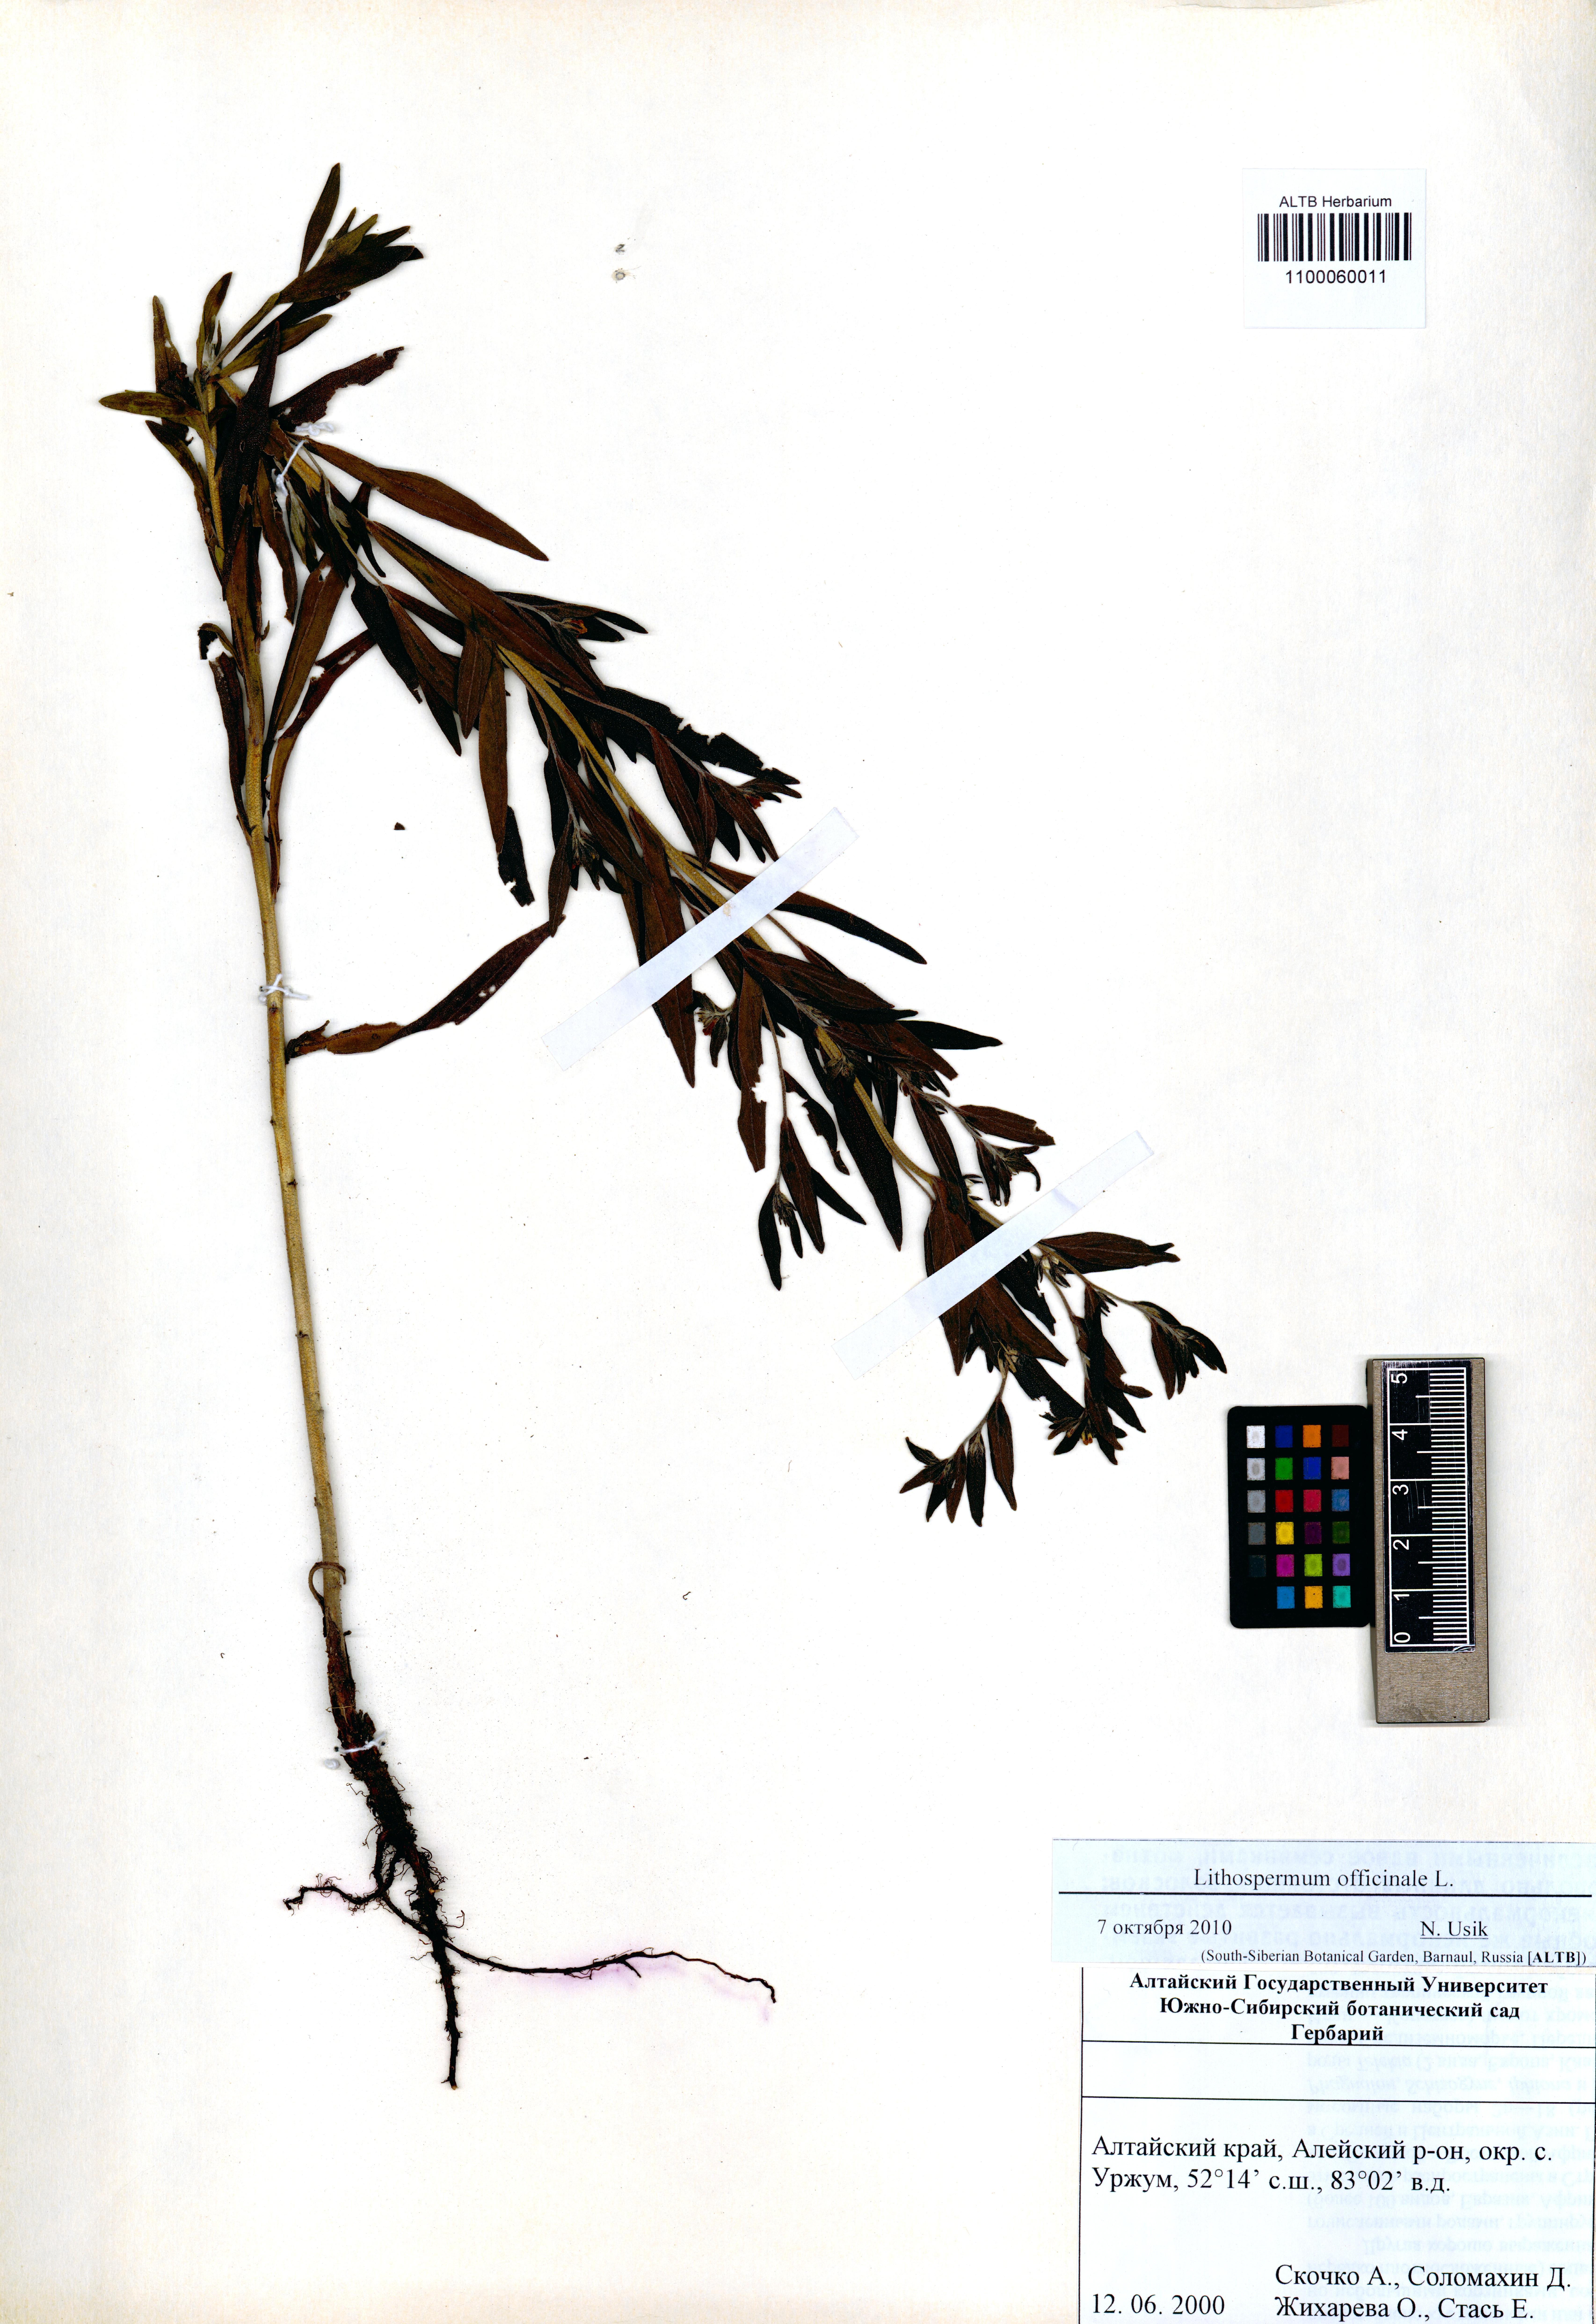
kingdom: Plantae
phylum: Tracheophyta
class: Magnoliopsida
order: Boraginales
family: Boraginaceae
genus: Lithospermum
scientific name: Lithospermum officinale
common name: Common gromwell
